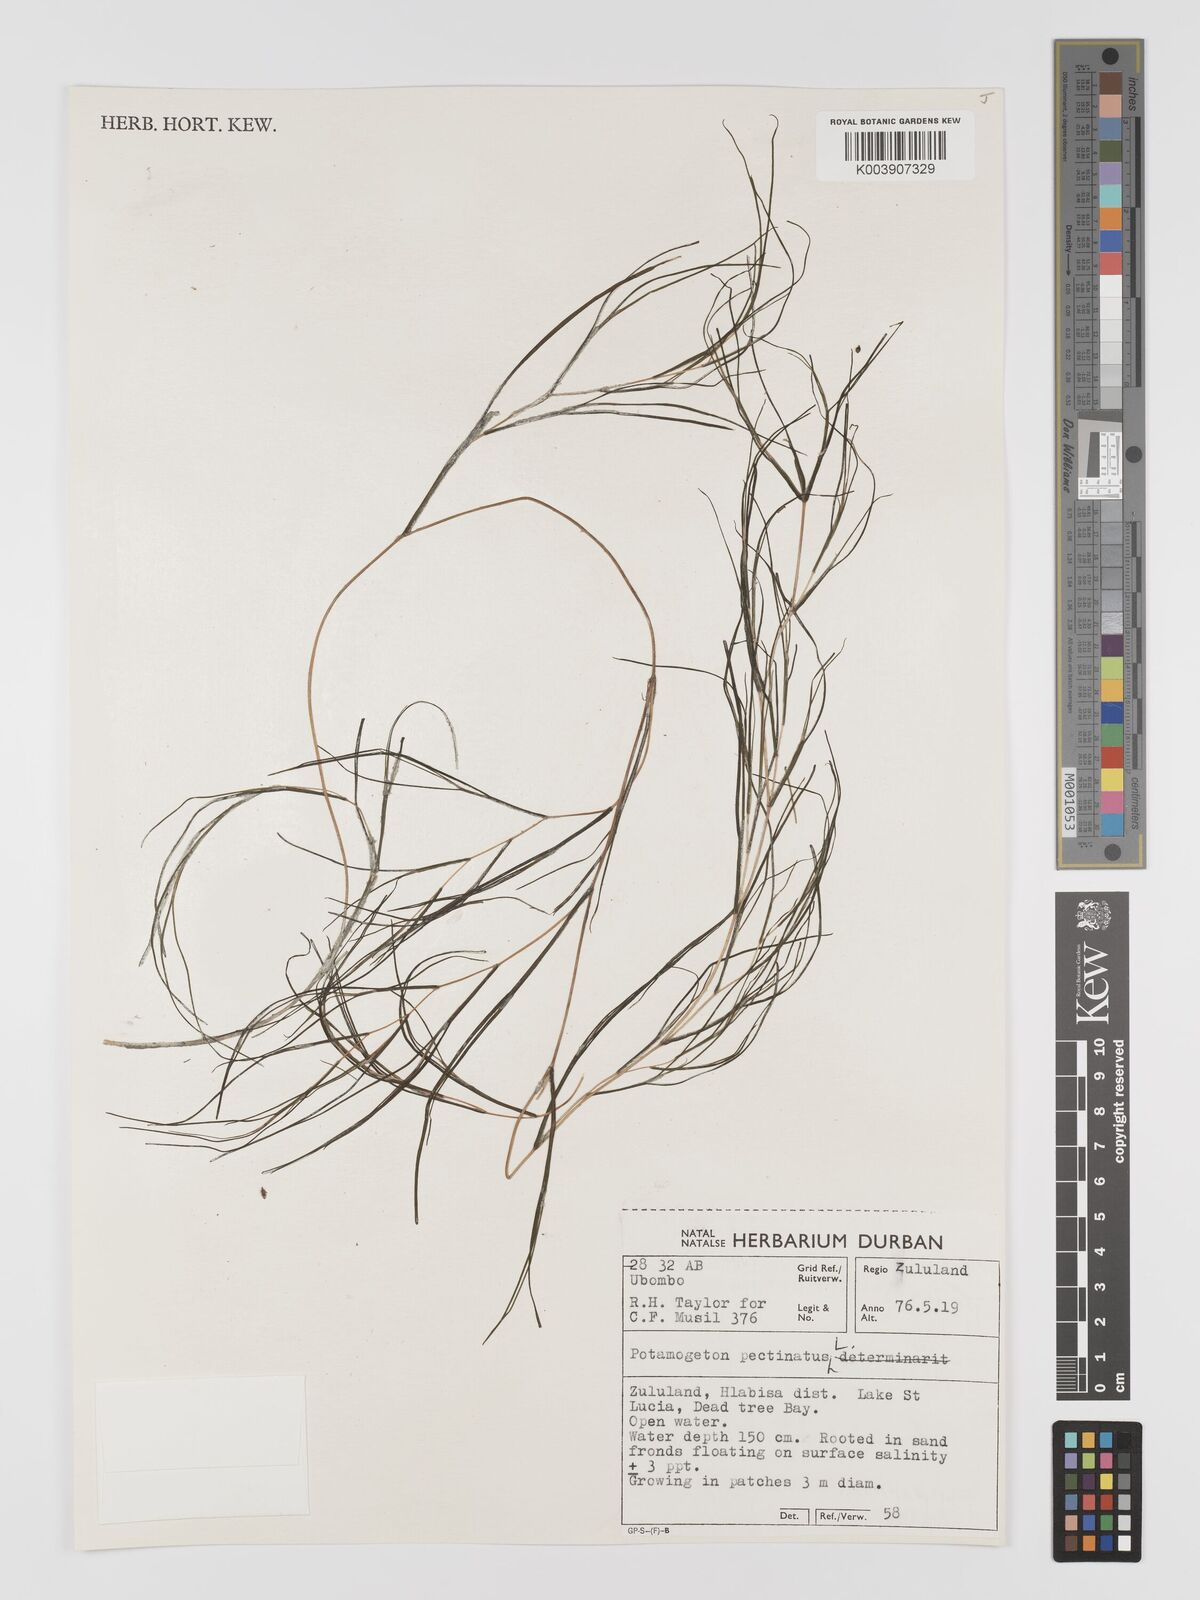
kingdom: Plantae
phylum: Tracheophyta
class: Liliopsida
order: Alismatales
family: Potamogetonaceae
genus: Stuckenia
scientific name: Stuckenia pectinata
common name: Sago pondweed
